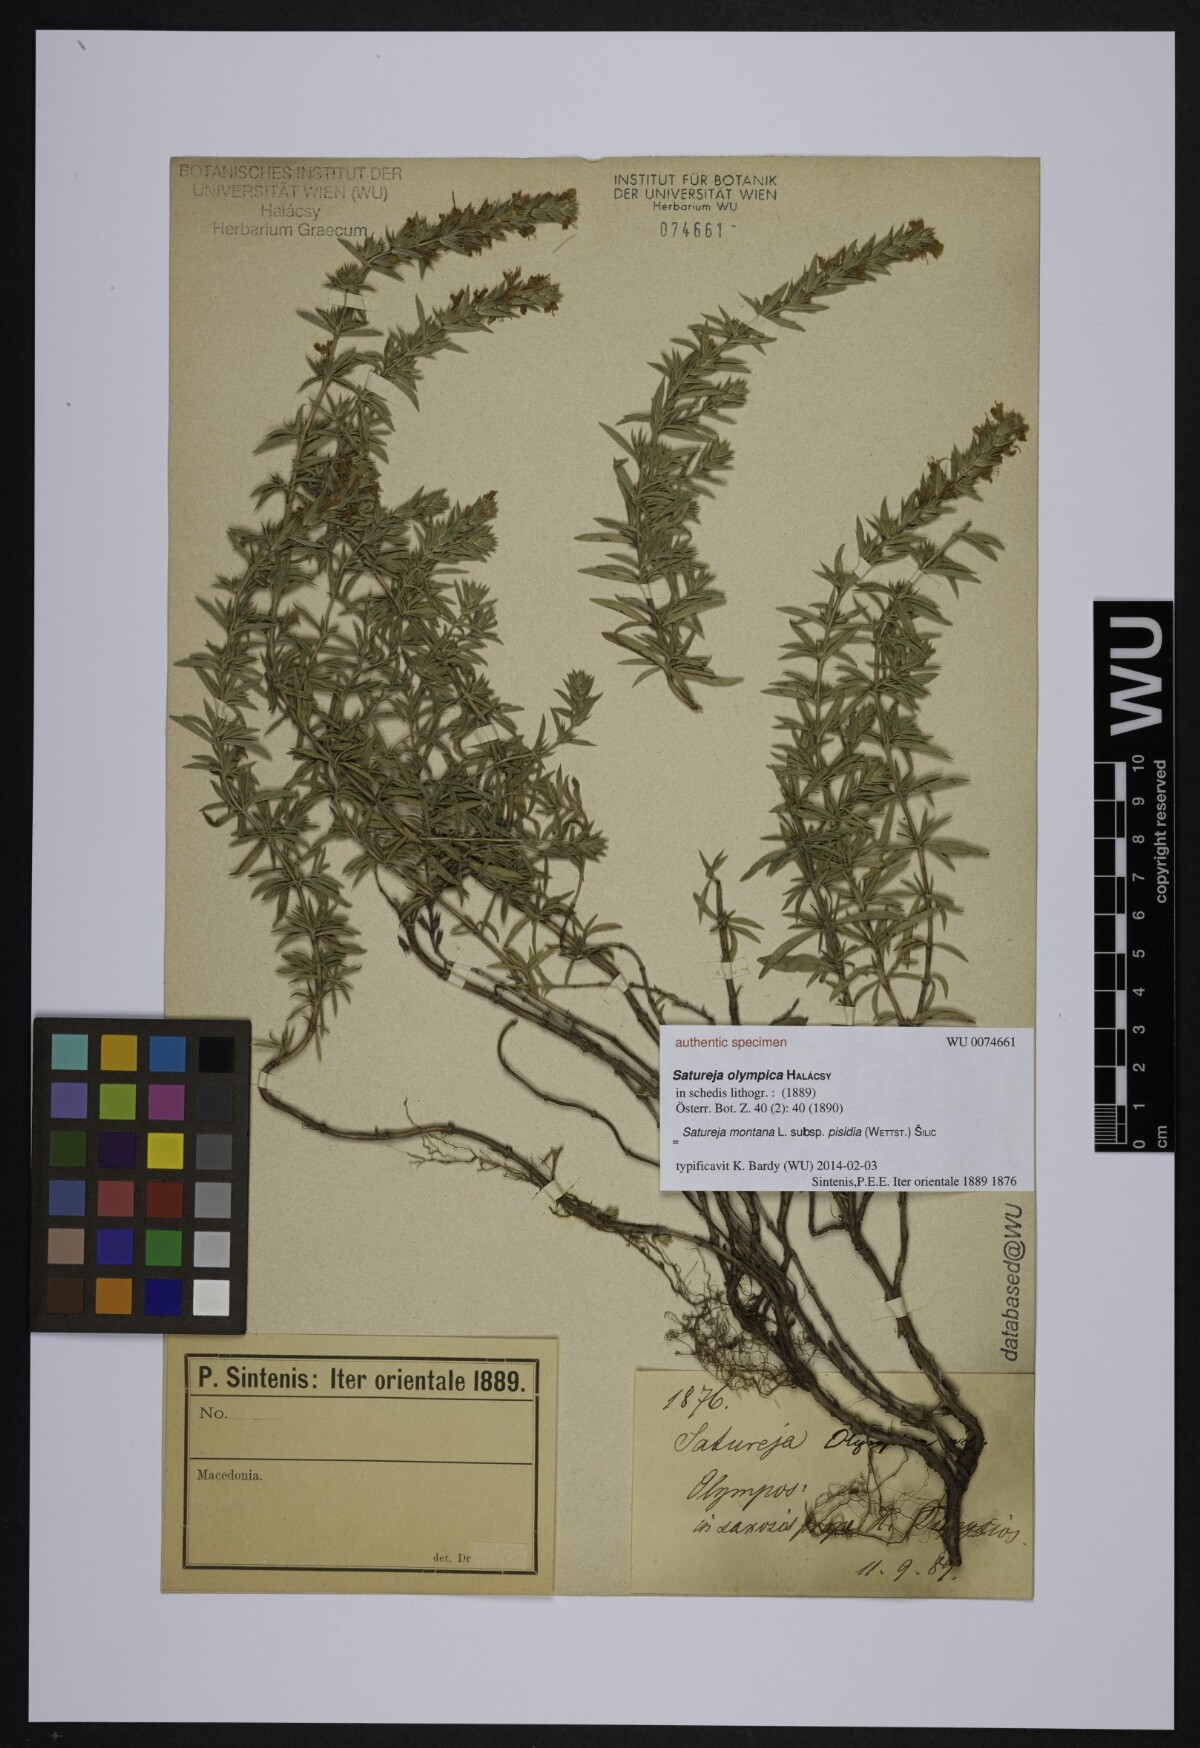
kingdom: Plantae
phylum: Tracheophyta
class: Magnoliopsida
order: Lamiales
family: Lamiaceae
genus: Satureja
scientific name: Satureja olympica
